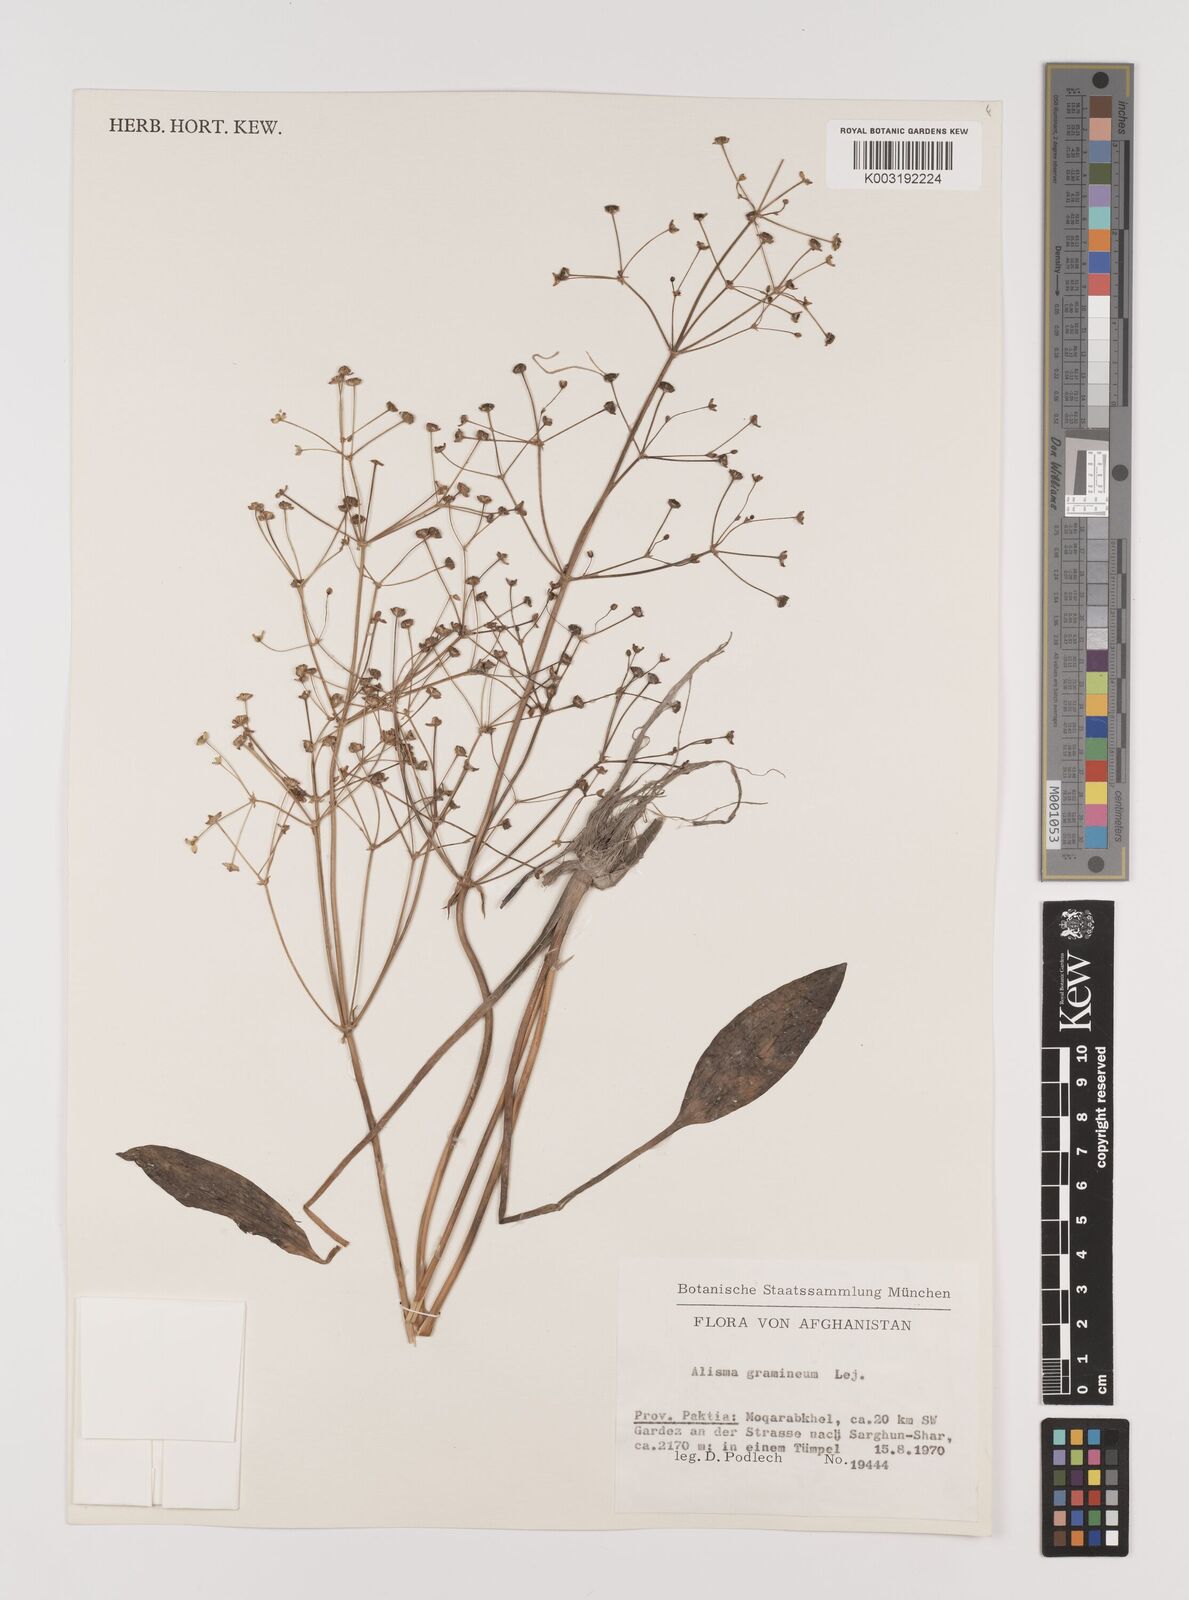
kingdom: Plantae
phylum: Tracheophyta
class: Liliopsida
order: Alismatales
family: Alismataceae
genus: Alisma
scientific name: Alisma gramineum
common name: Ribbon-leaved water-plantain
